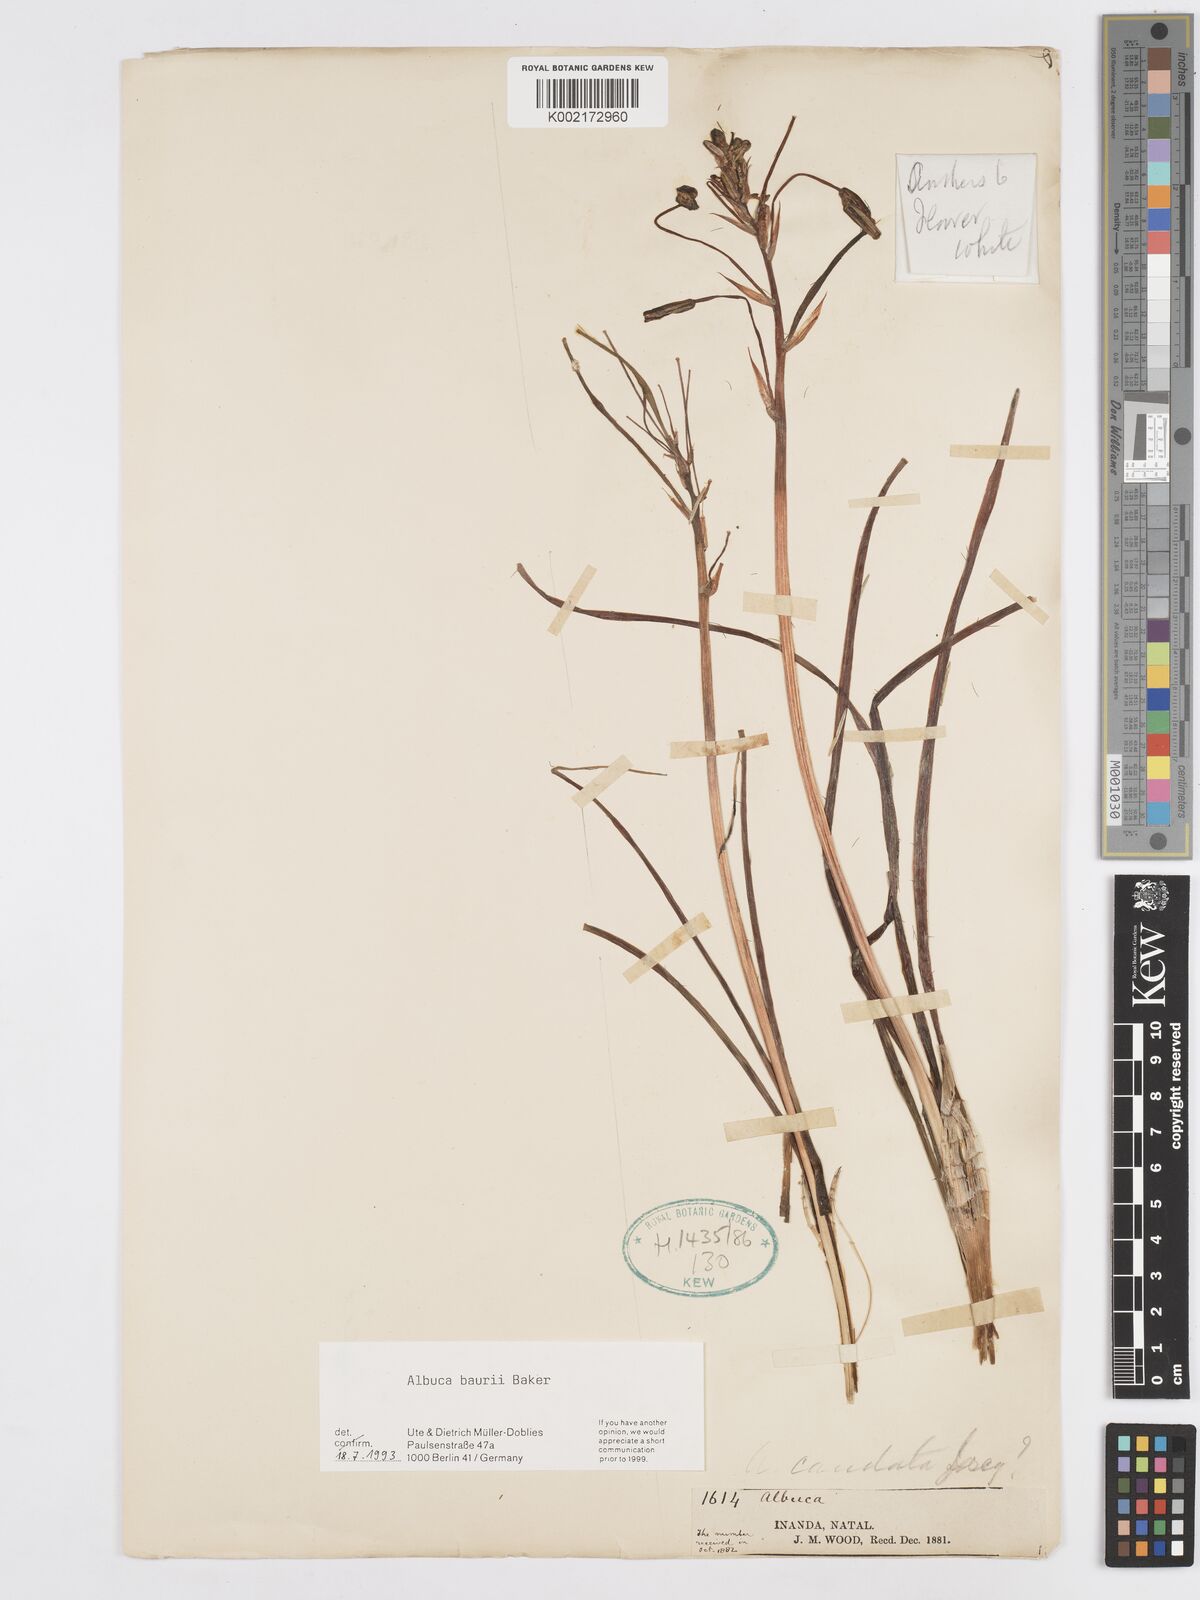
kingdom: Plantae
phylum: Tracheophyta
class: Liliopsida
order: Asparagales
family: Asparagaceae
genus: Albuca
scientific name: Albuca setosa
